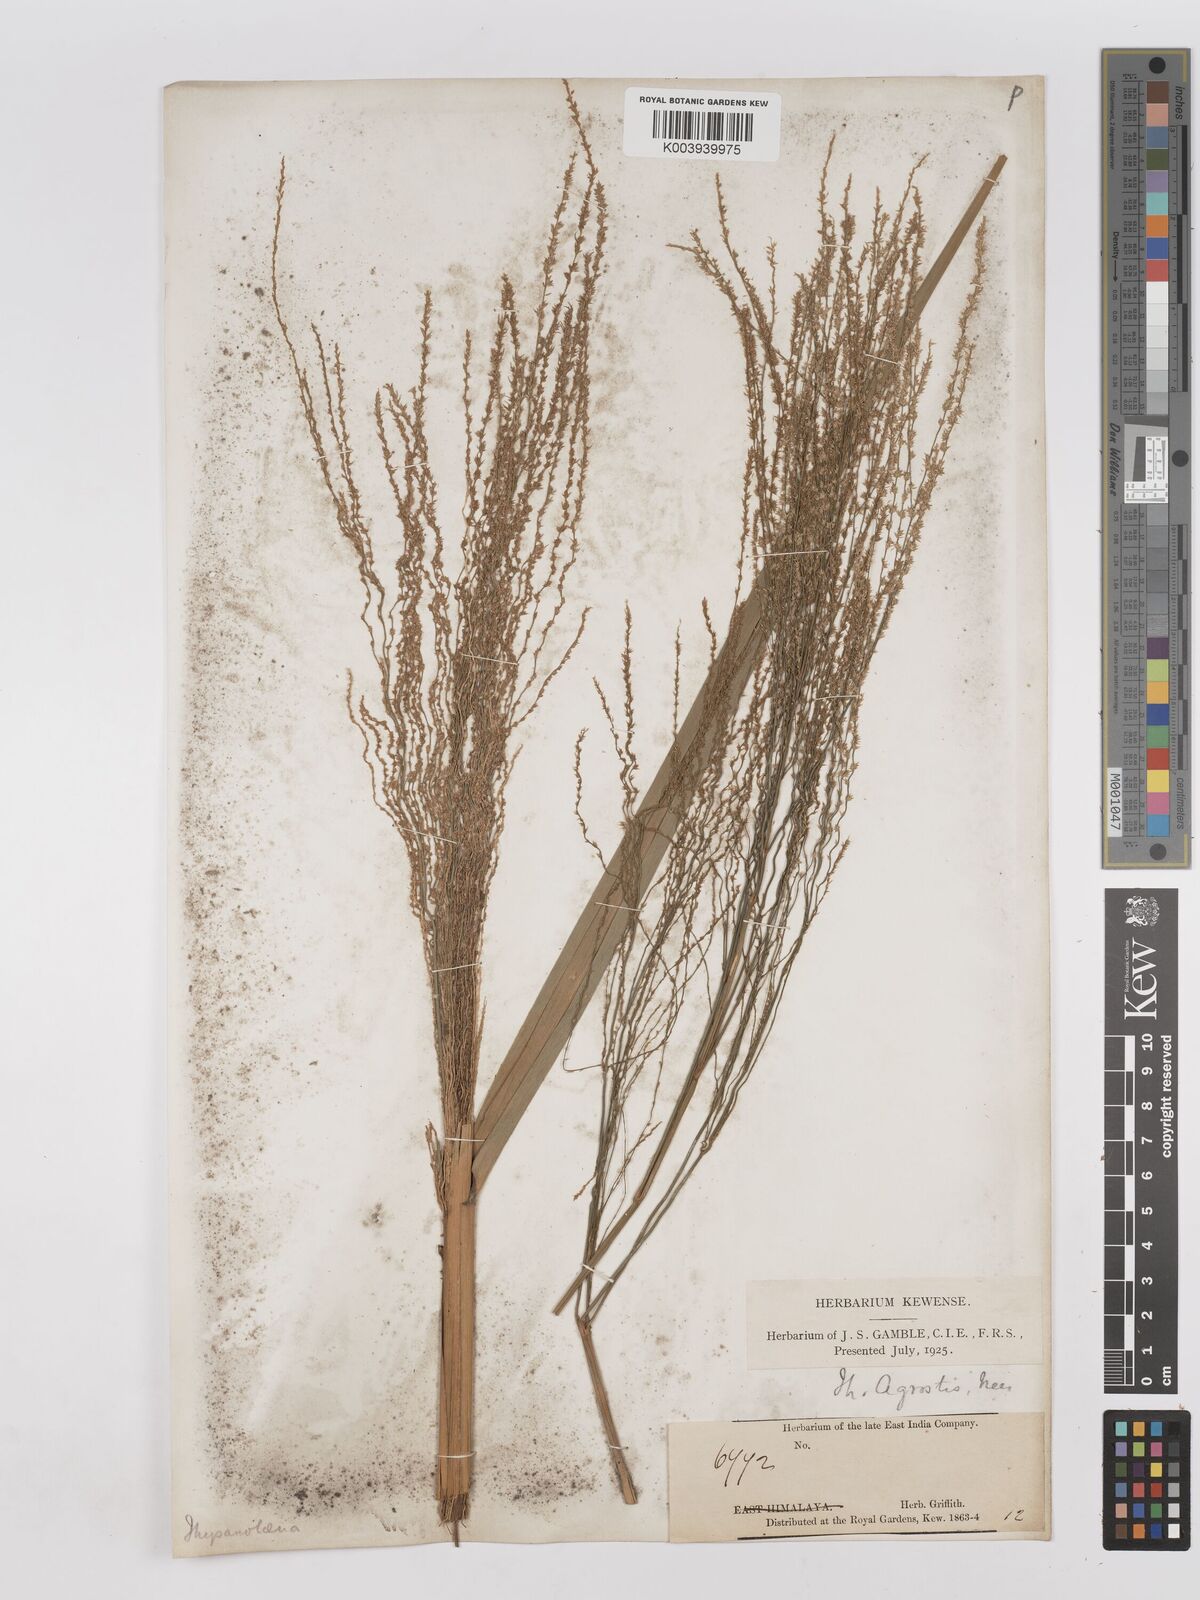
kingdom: Plantae
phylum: Tracheophyta
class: Liliopsida
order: Poales
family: Poaceae
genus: Thysanolaena
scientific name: Thysanolaena latifolia
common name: Tiger grass
